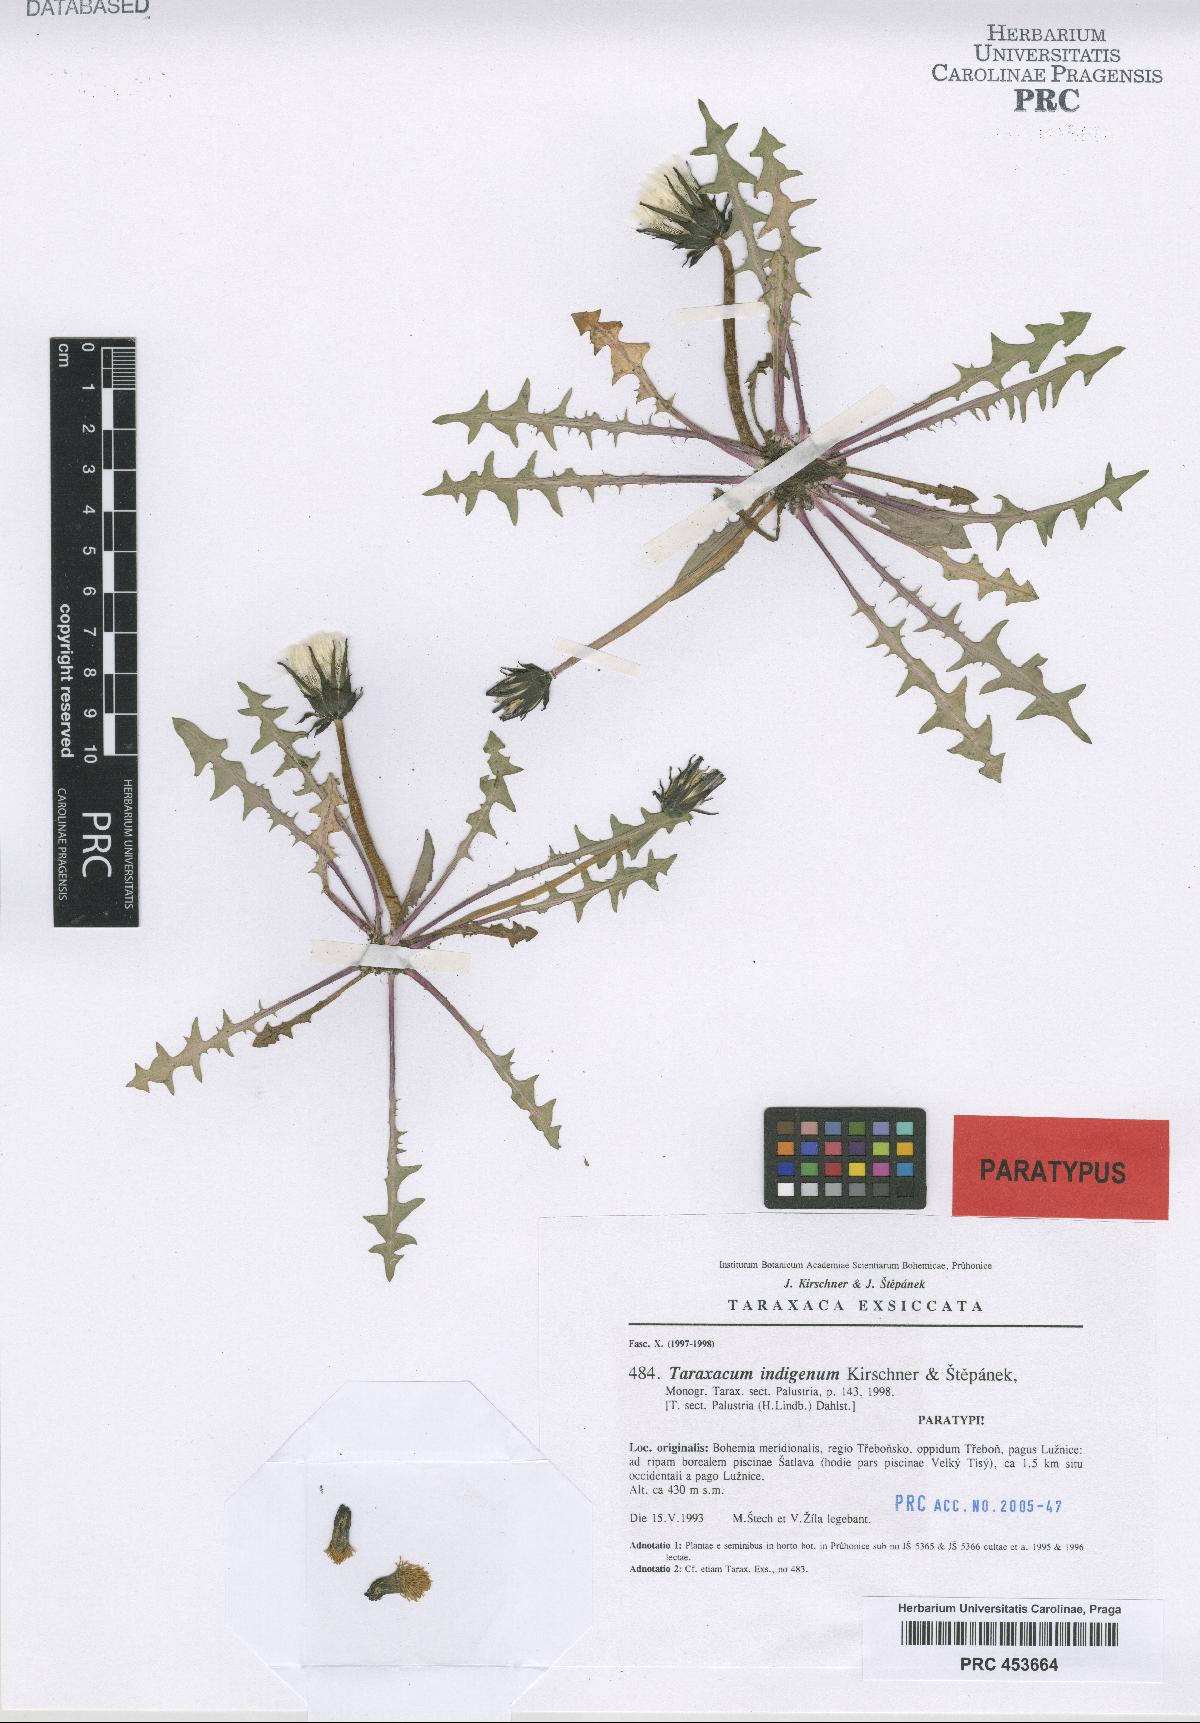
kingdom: Plantae
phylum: Tracheophyta
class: Magnoliopsida
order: Asterales
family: Asteraceae
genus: Taraxacum
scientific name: Taraxacum indigenum
